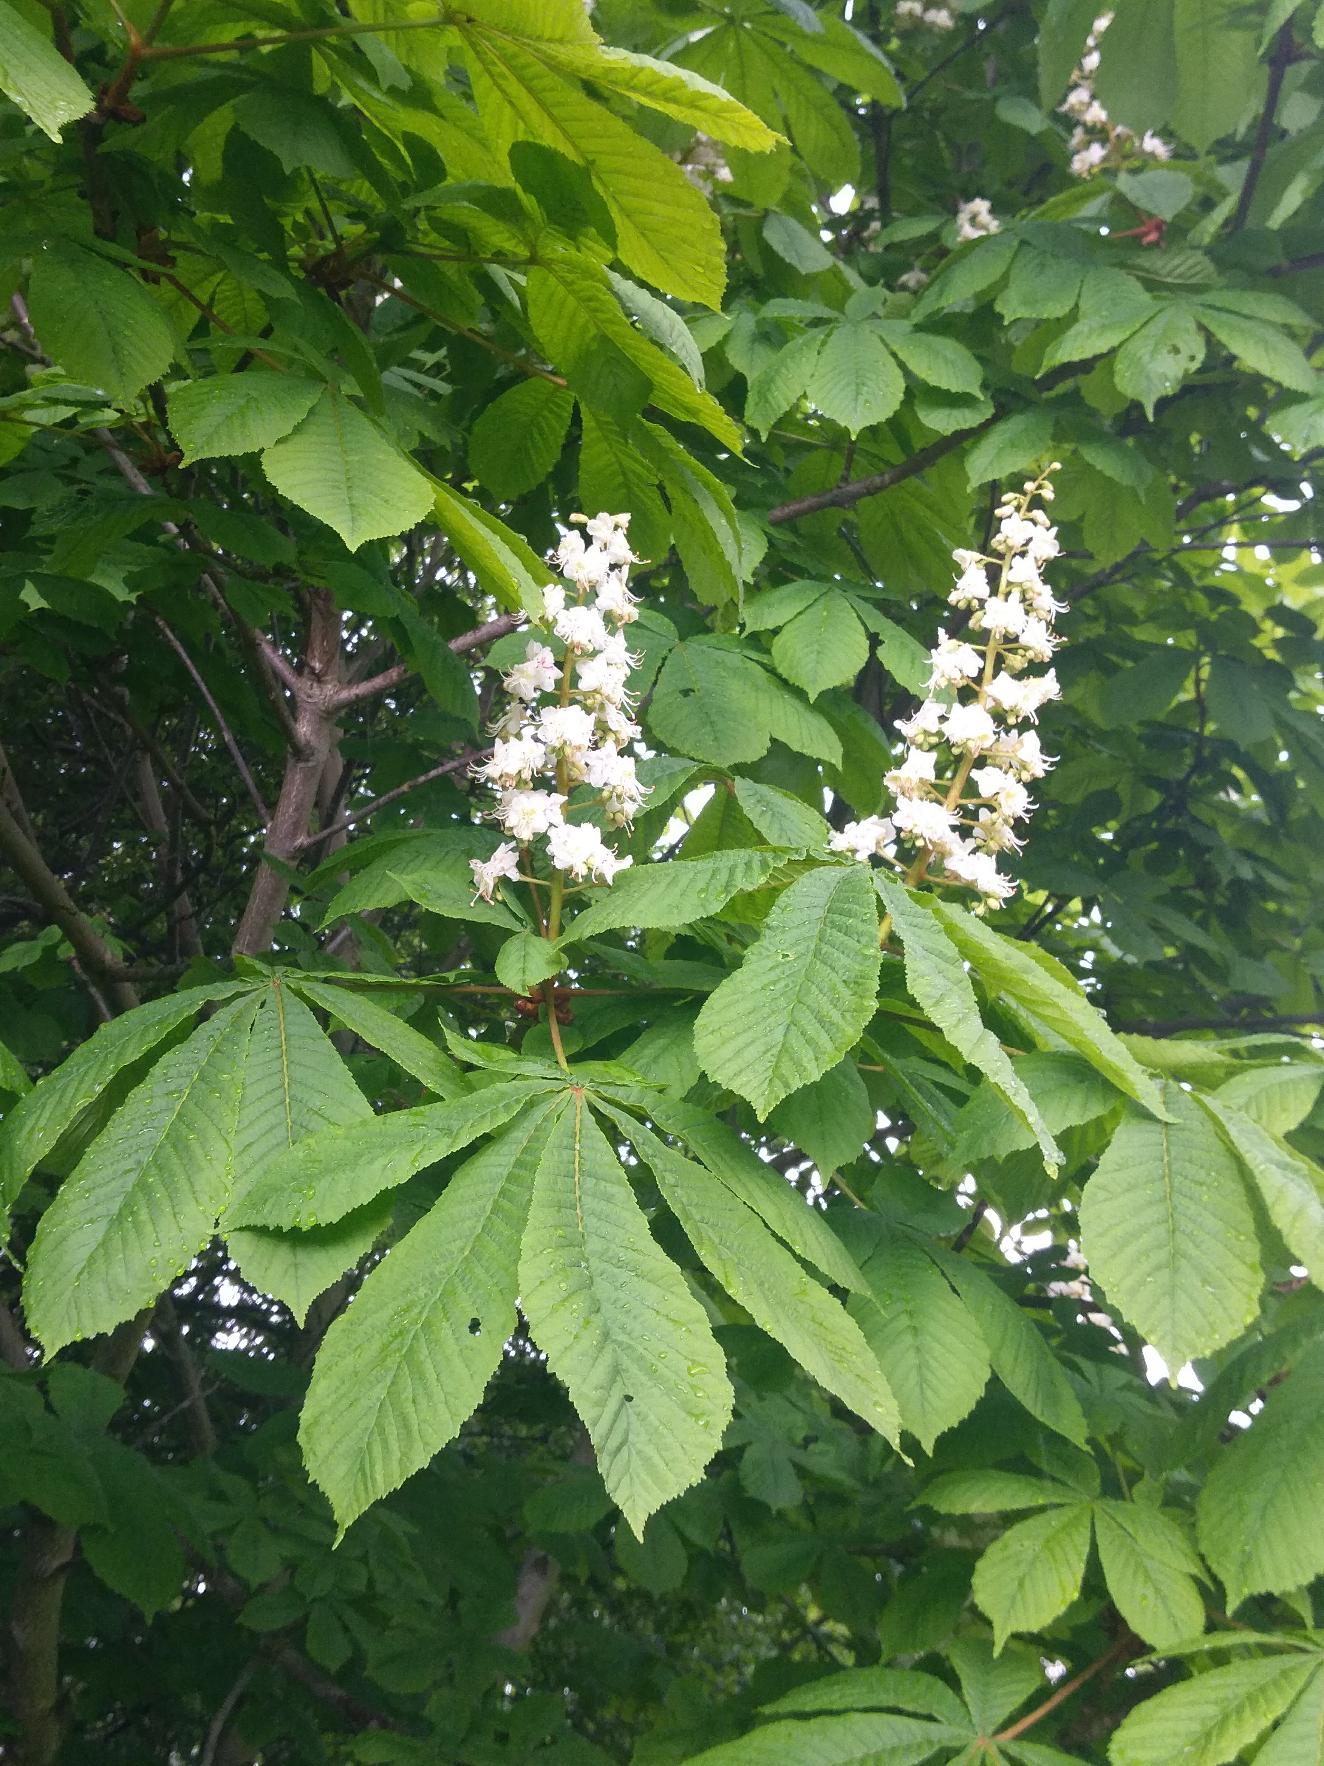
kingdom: Plantae
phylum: Tracheophyta
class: Magnoliopsida
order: Sapindales
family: Sapindaceae
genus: Aesculus
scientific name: Aesculus hippocastanum
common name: Hestekastanie
